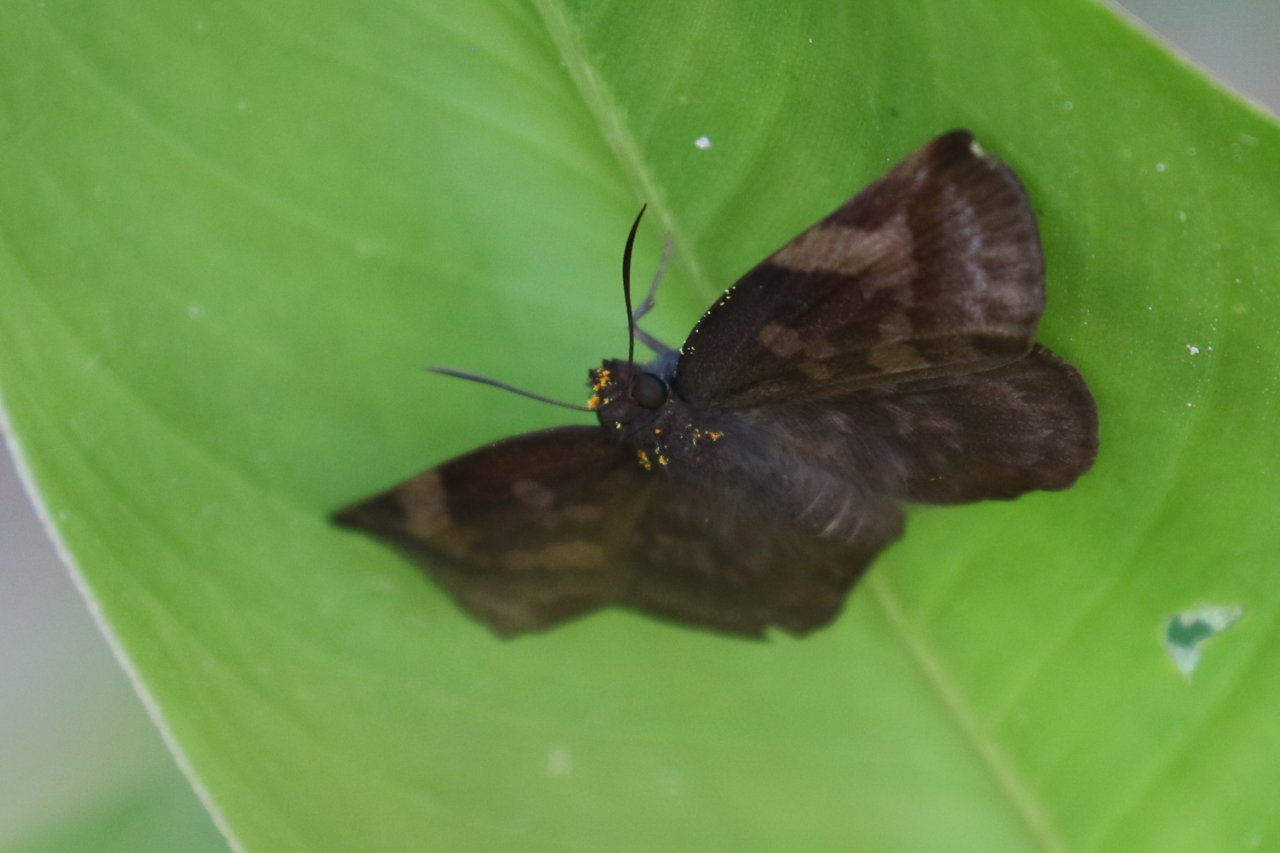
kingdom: Animalia
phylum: Arthropoda
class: Insecta
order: Lepidoptera
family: Hesperiidae
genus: Achlyodes
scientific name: Achlyodes thraso
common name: Sickle-winged Skipper
